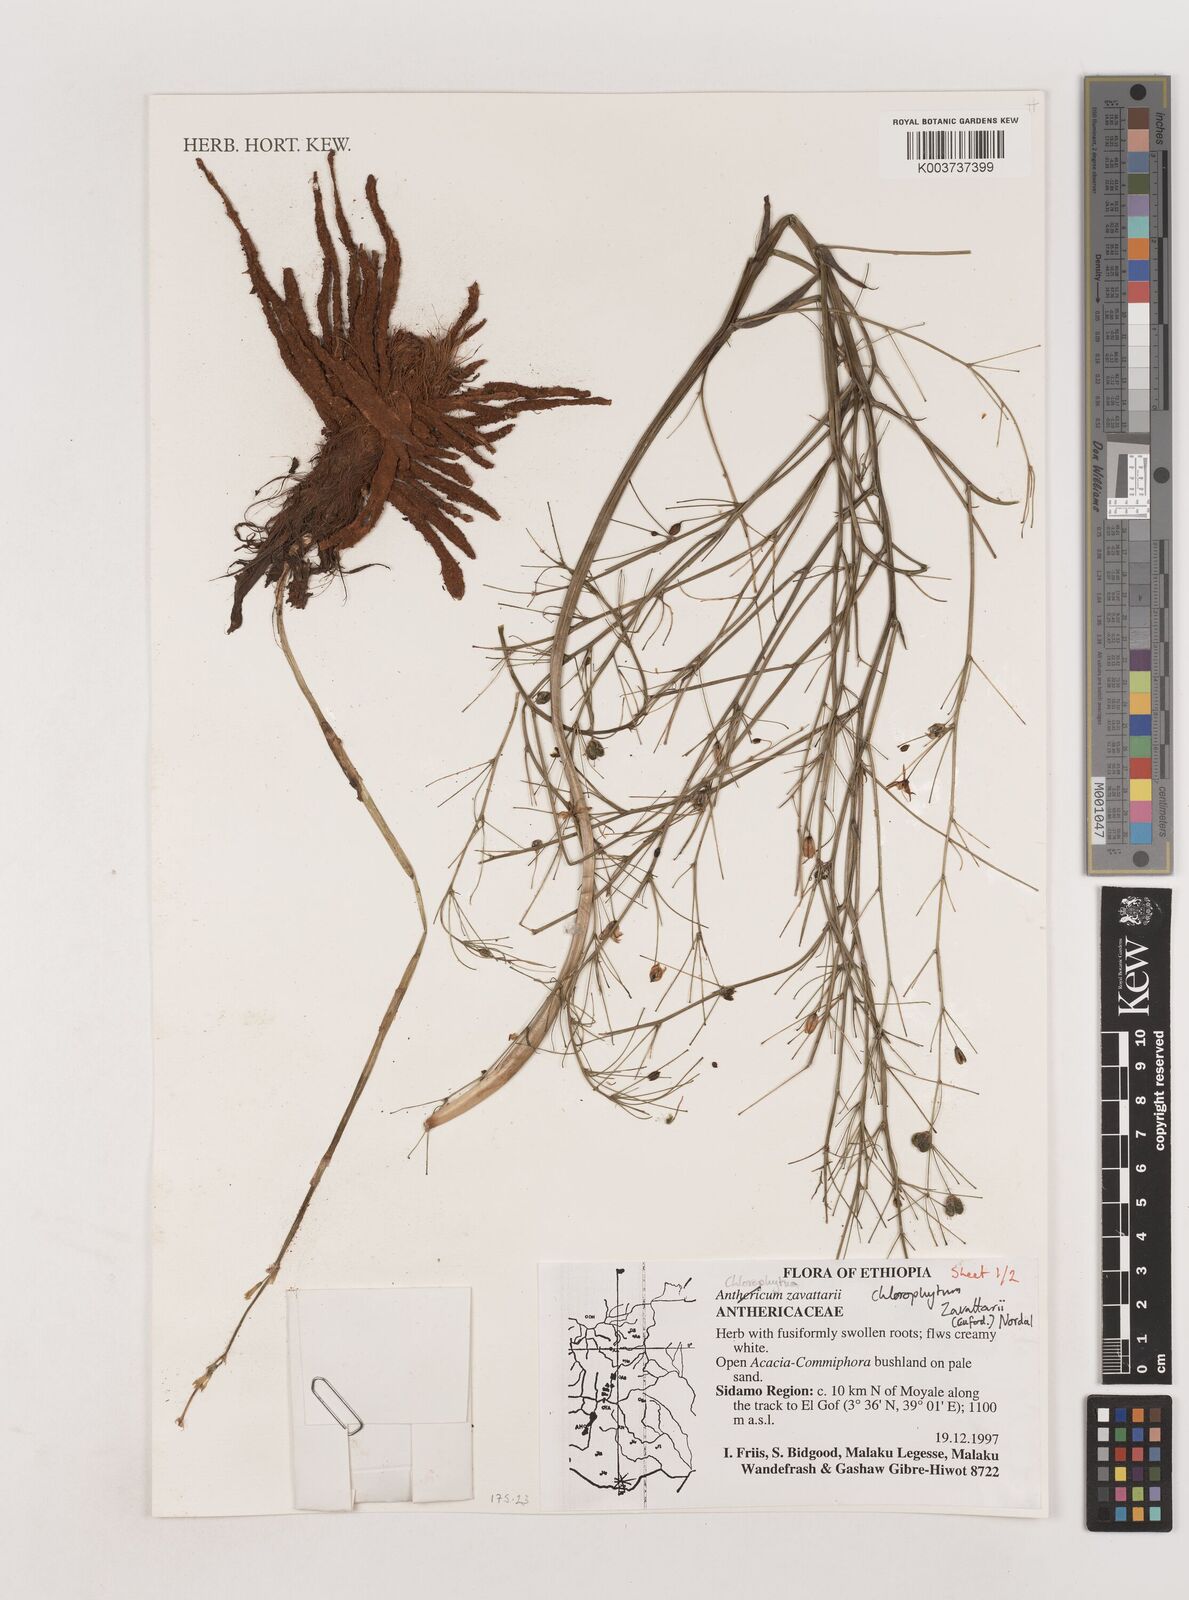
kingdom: Plantae
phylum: Tracheophyta
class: Liliopsida
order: Asparagales
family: Asparagaceae
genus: Chlorophytum
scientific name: Chlorophytum zavattarii
